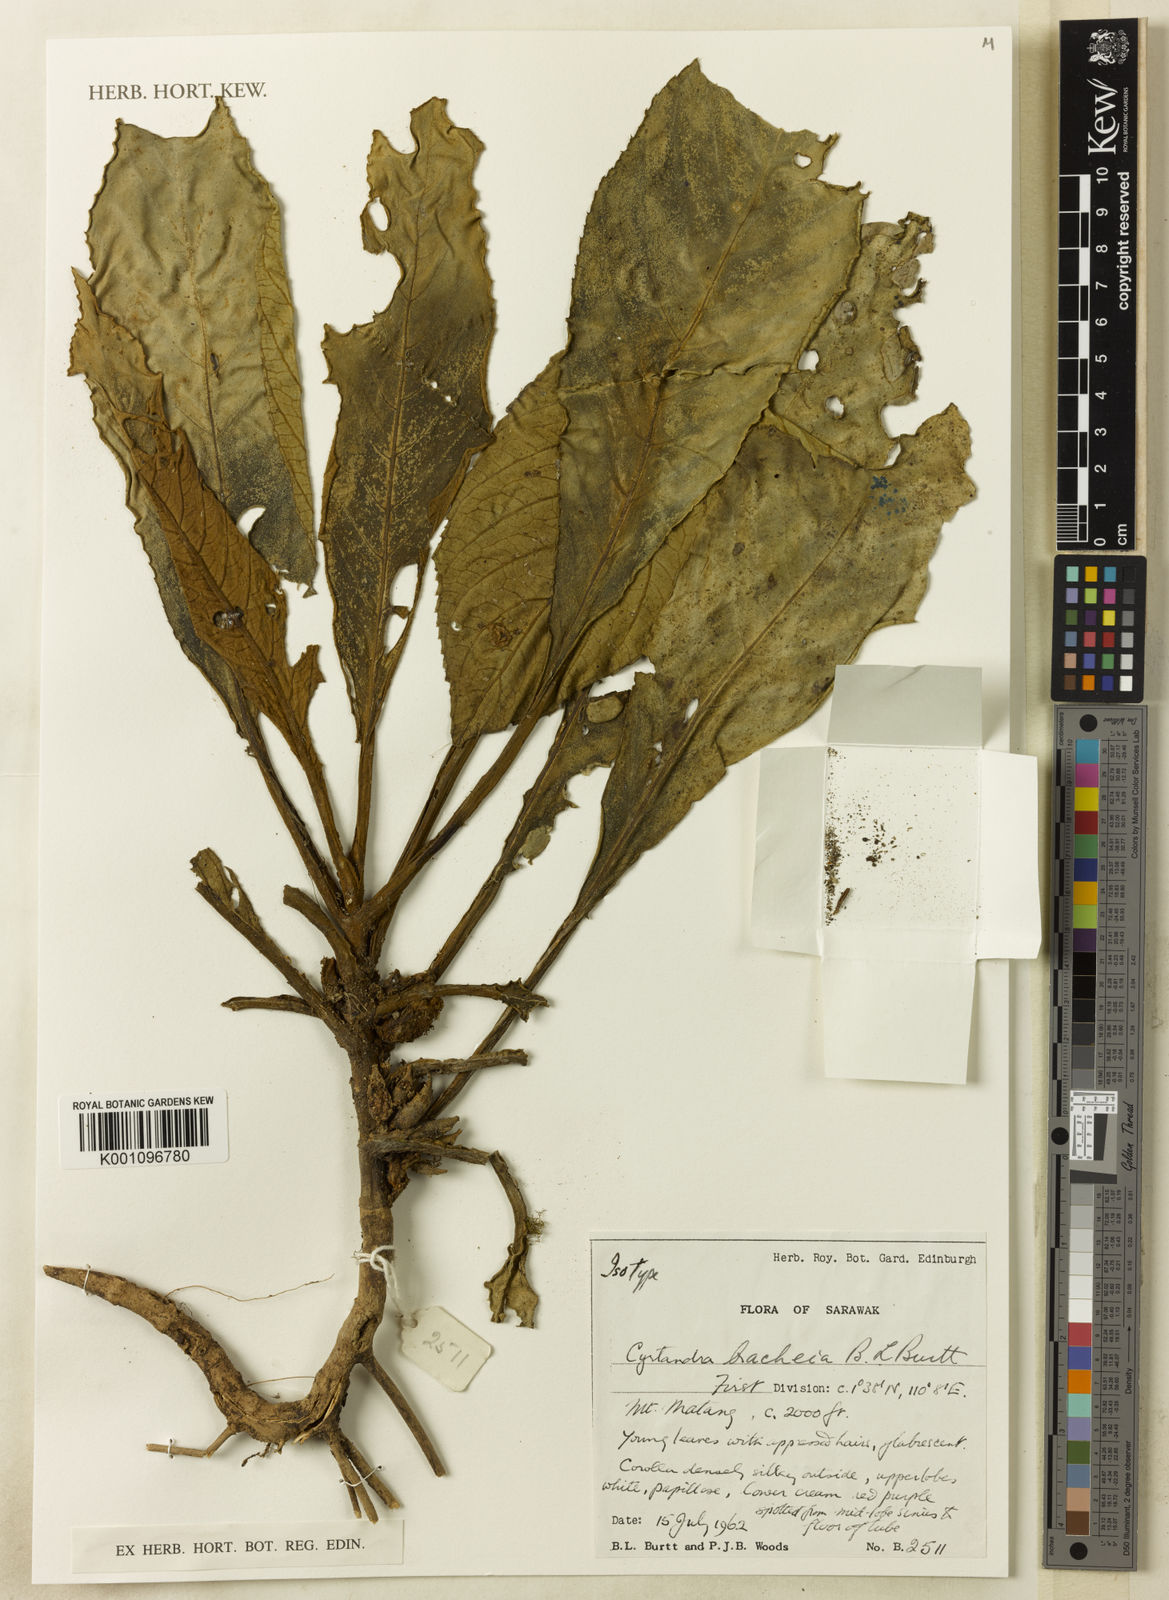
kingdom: Plantae
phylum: Tracheophyta
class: Magnoliopsida
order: Lamiales
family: Gesneriaceae
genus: Cyrtandra
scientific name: Cyrtandra bracheia
